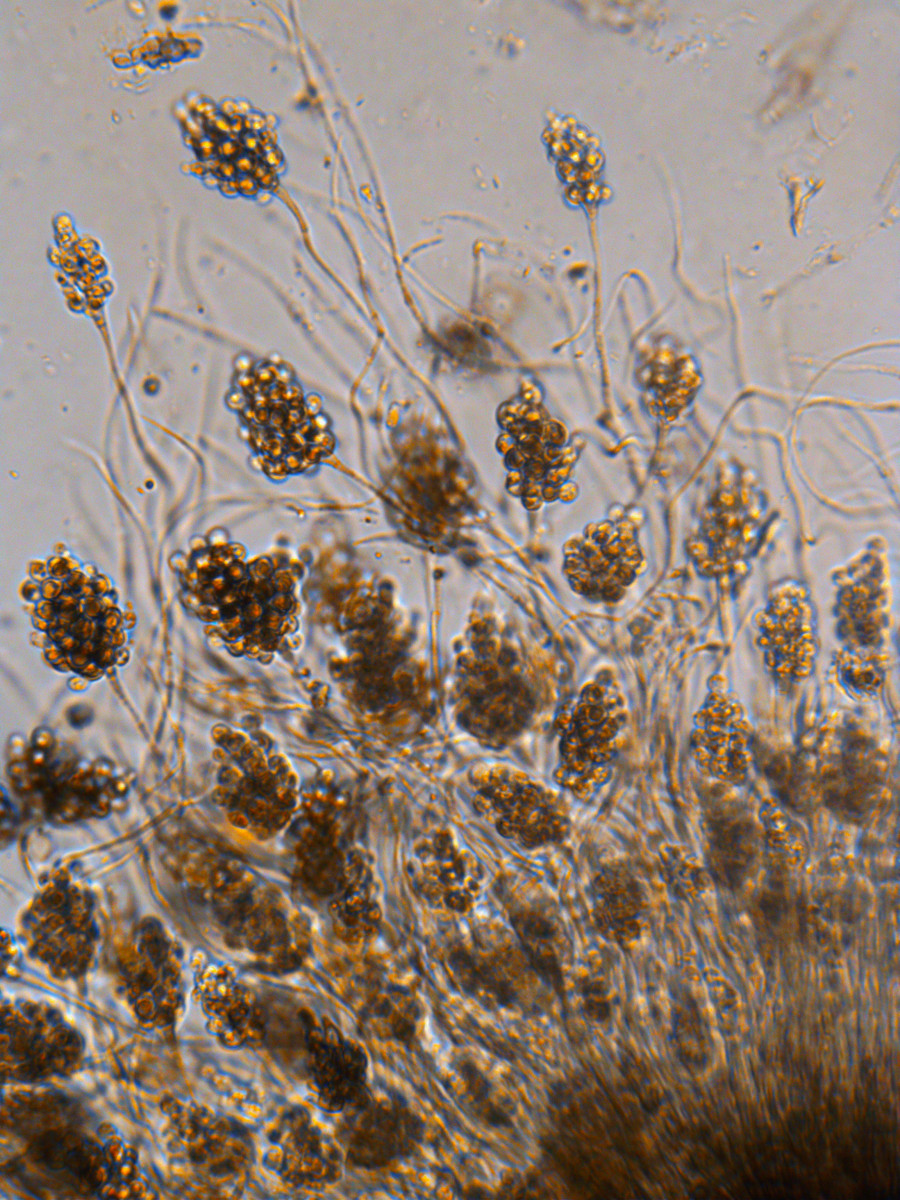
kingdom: Fungi
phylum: Ascomycota
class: Leotiomycetes
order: Helotiales
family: Mollisiaceae
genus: Cheirospora
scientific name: Cheirospora botryospora
